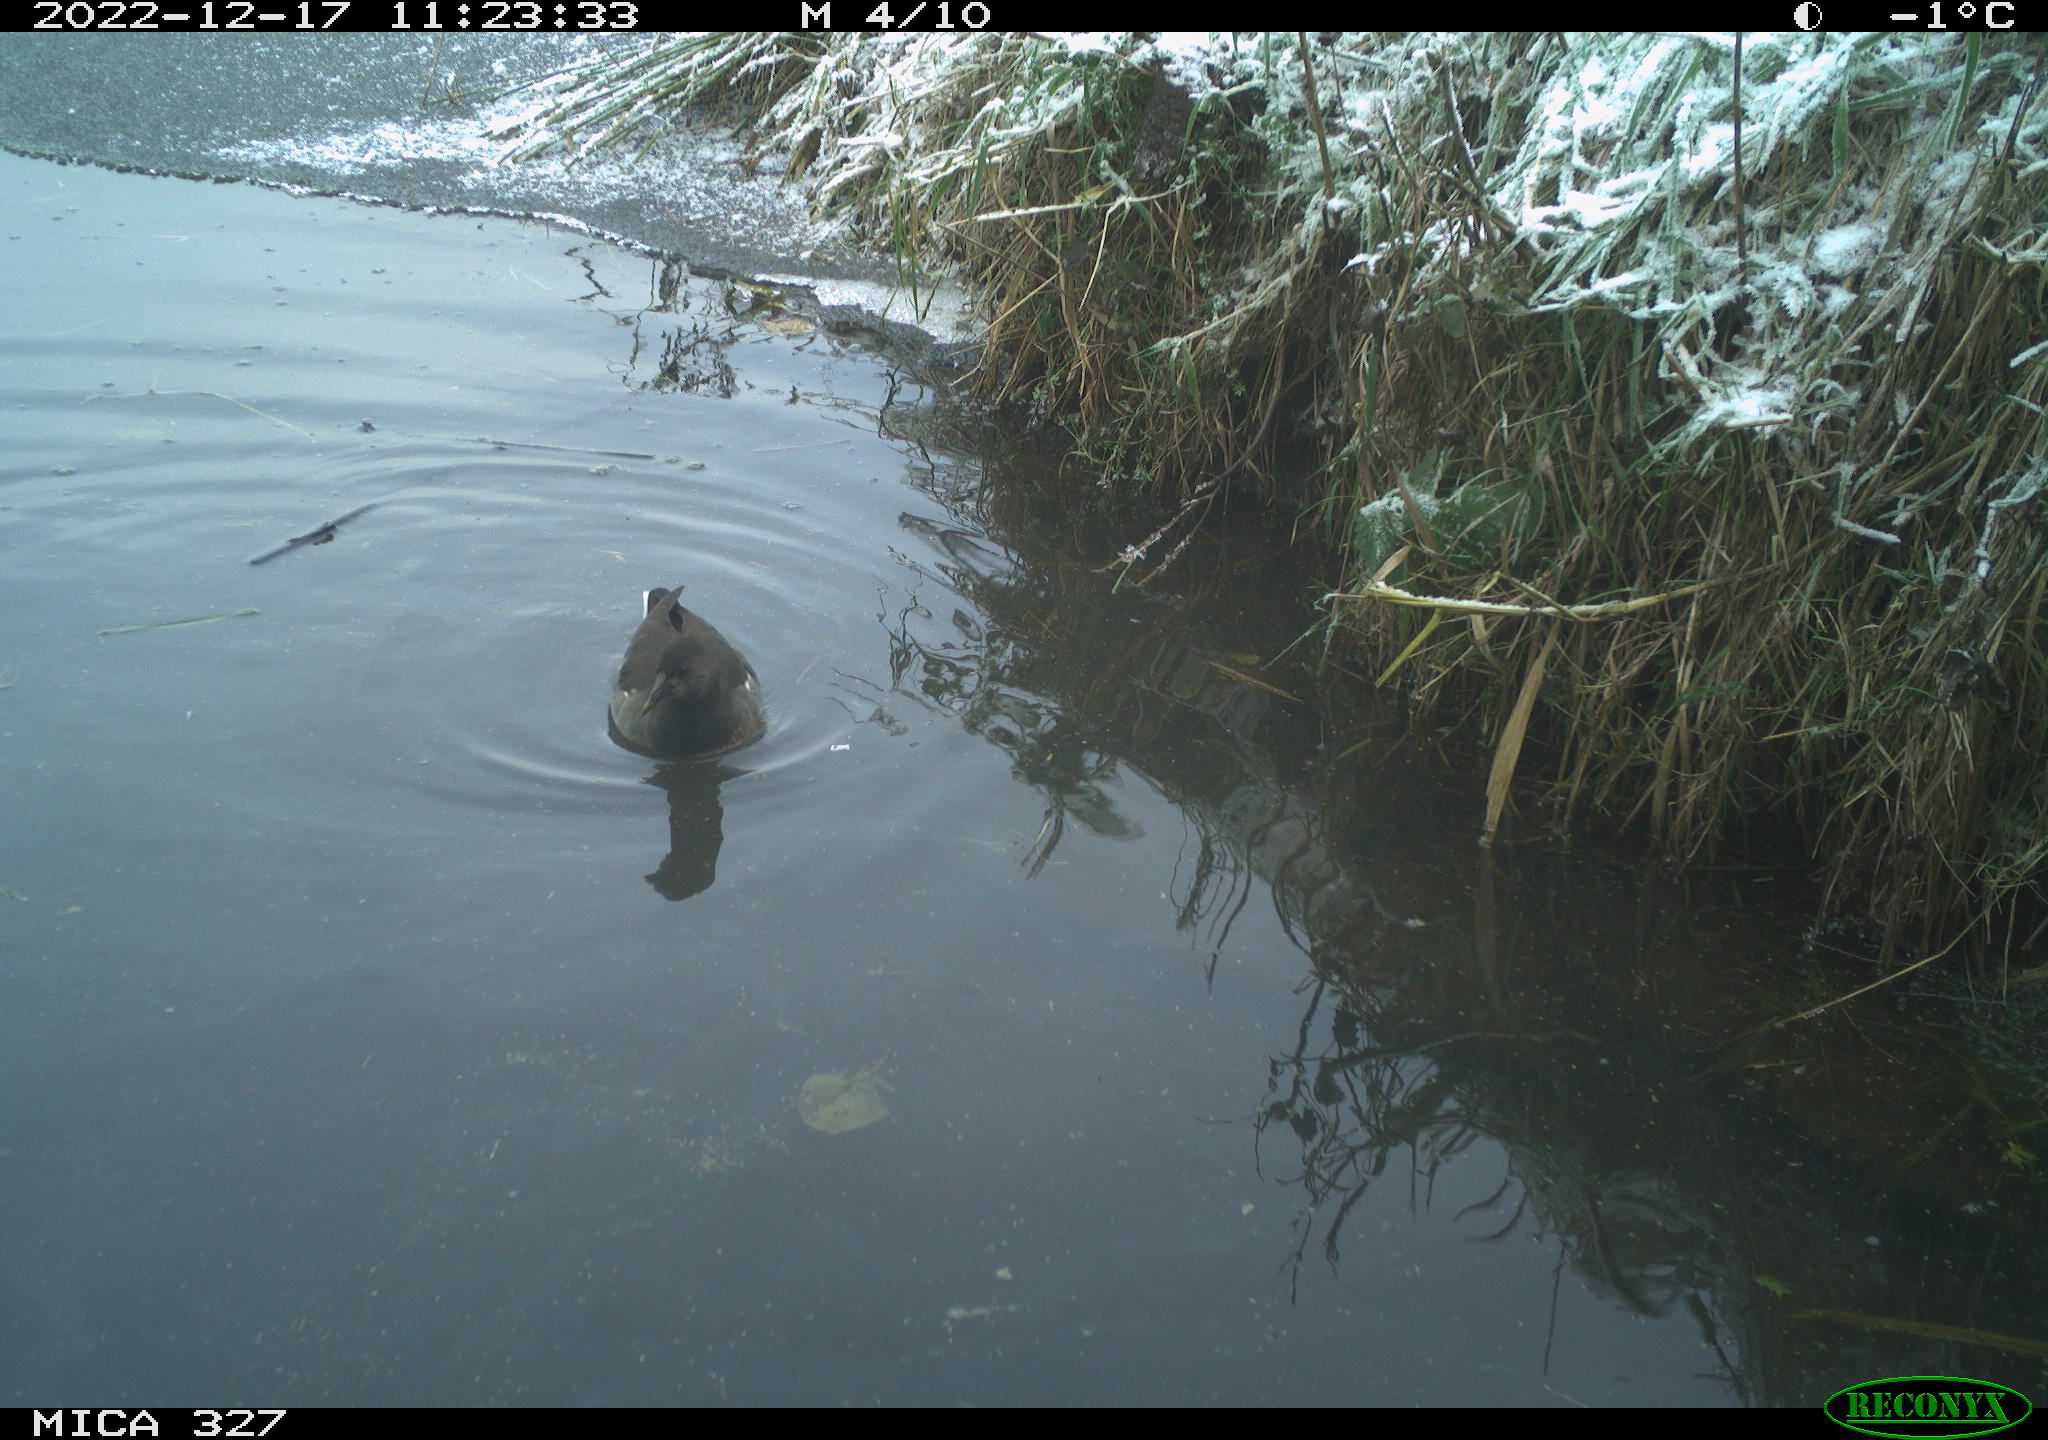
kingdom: Animalia
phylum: Chordata
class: Aves
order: Gruiformes
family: Rallidae
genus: Gallinula
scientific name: Gallinula chloropus
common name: Common moorhen
